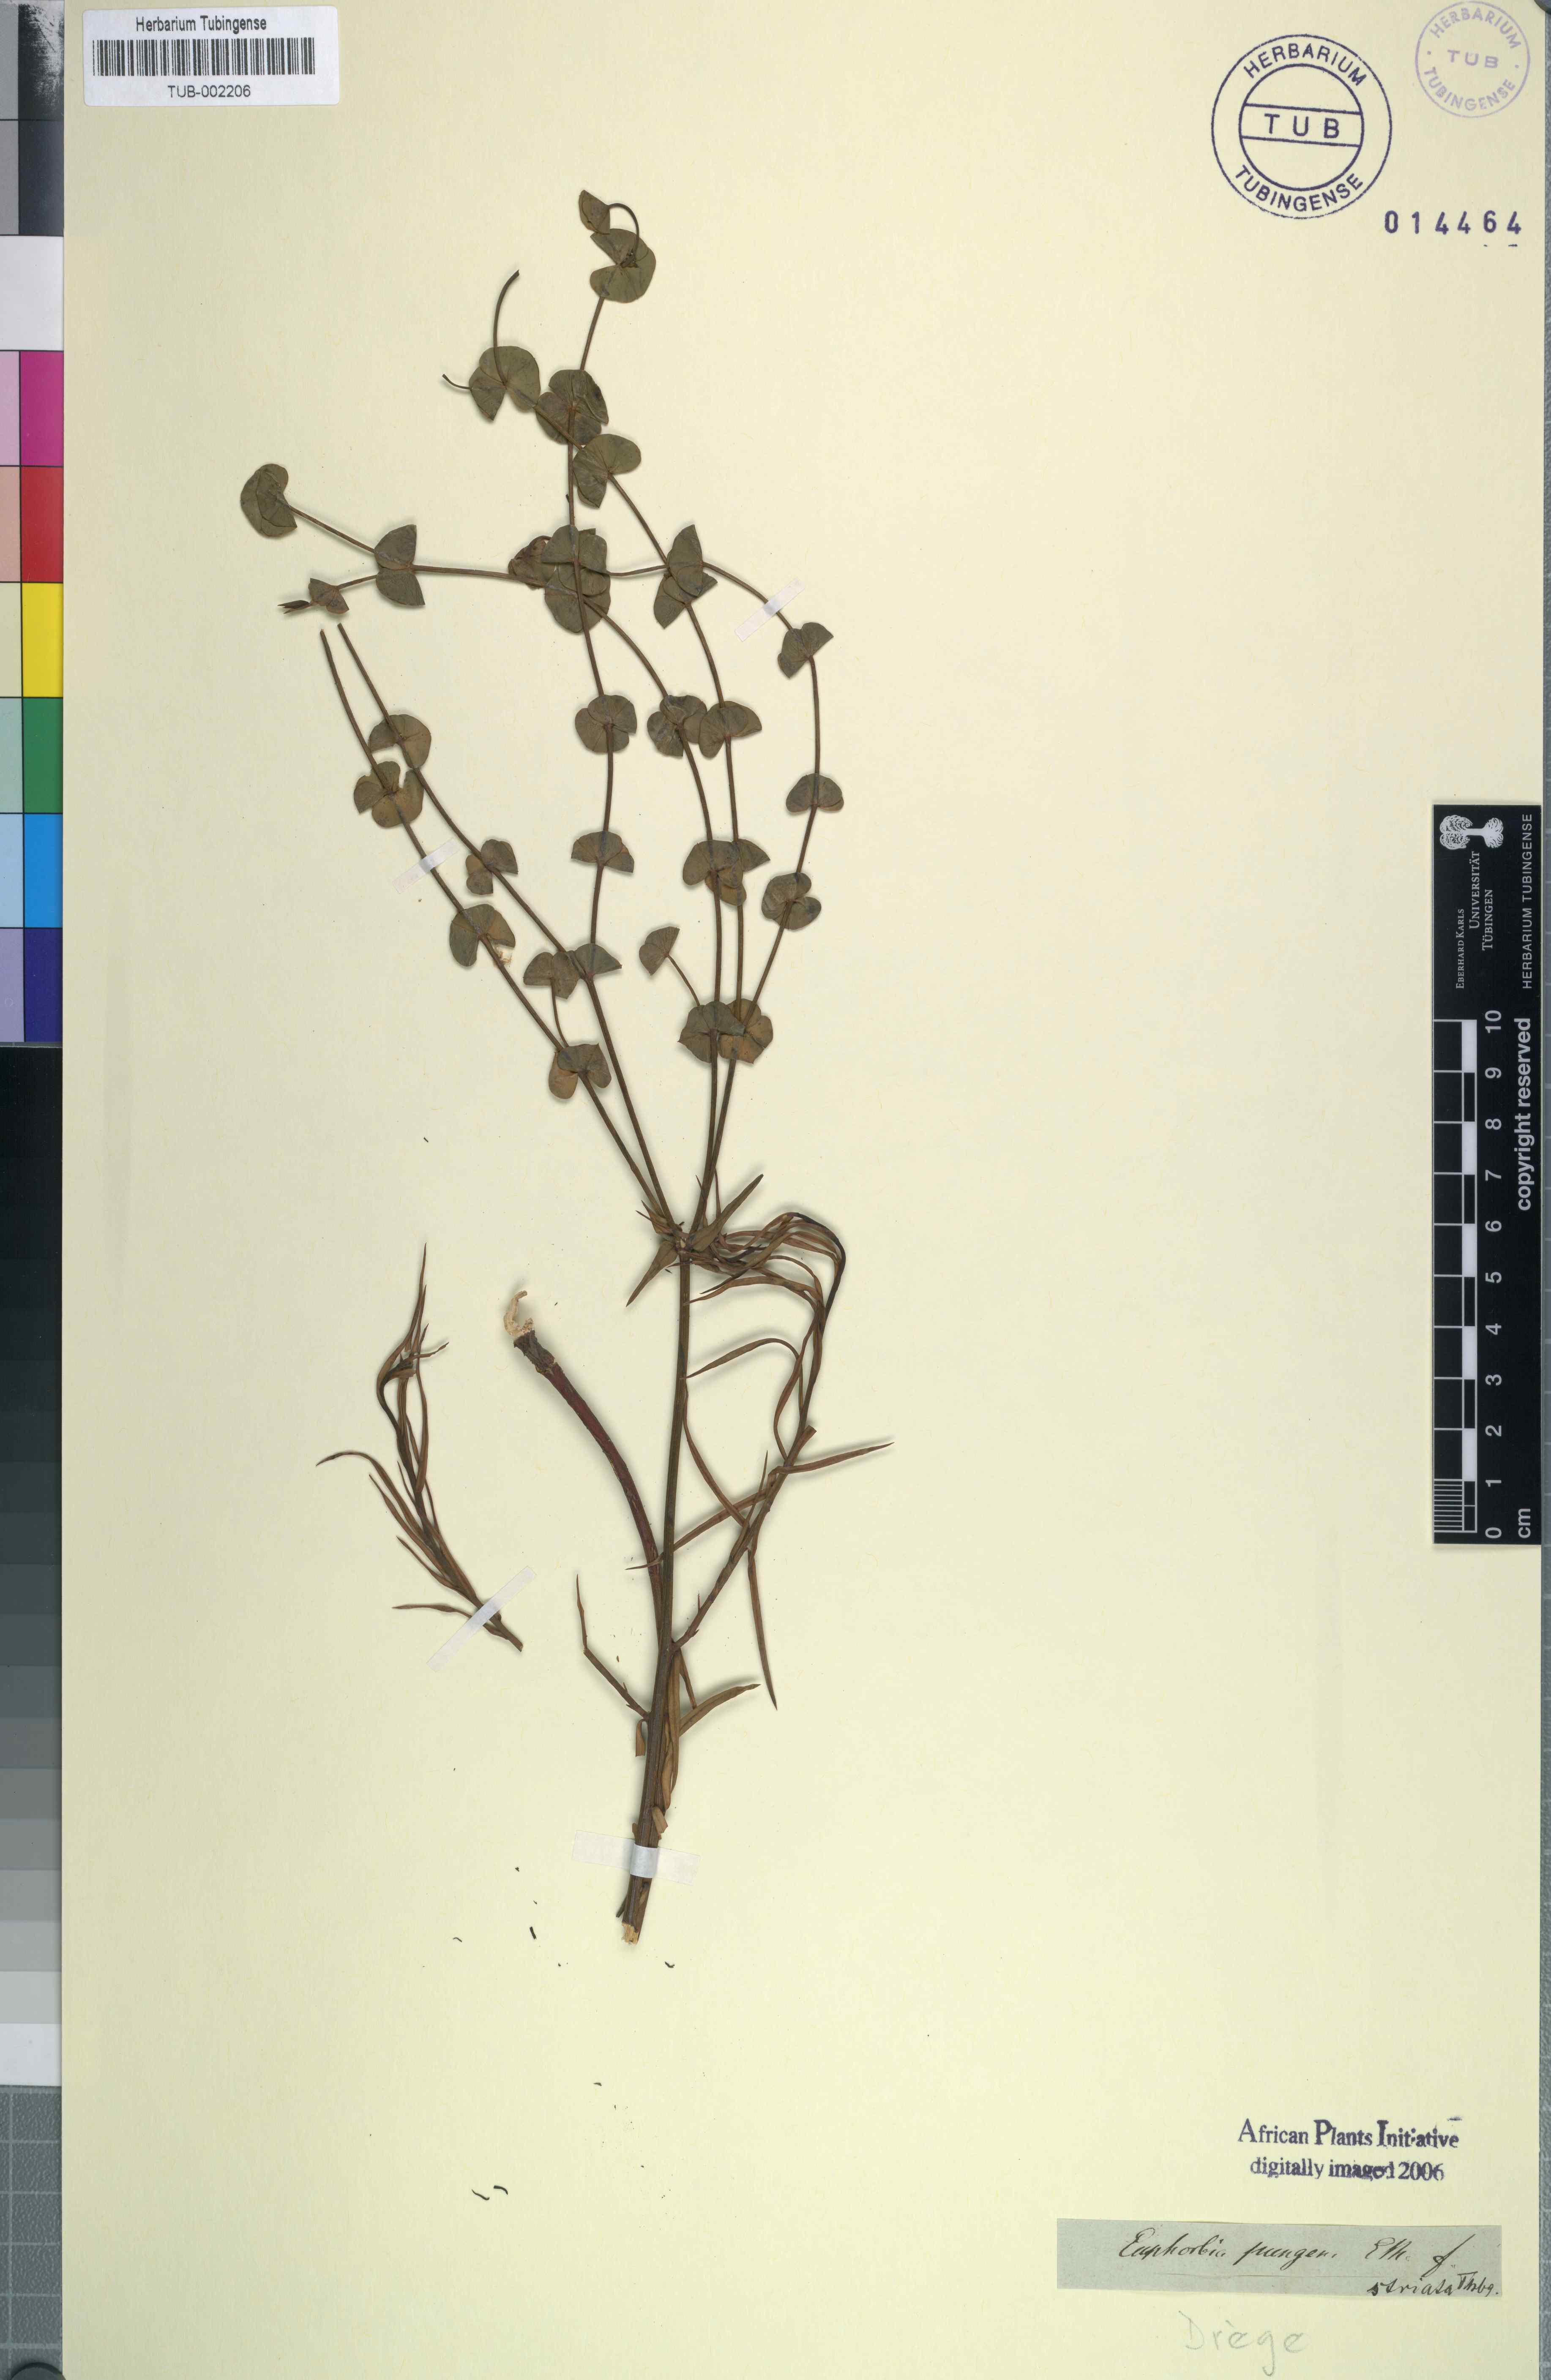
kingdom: Plantae
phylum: Tracheophyta
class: Magnoliopsida
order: Malpighiales
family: Euphorbiaceae
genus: Euphorbia
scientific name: Euphorbia striata
